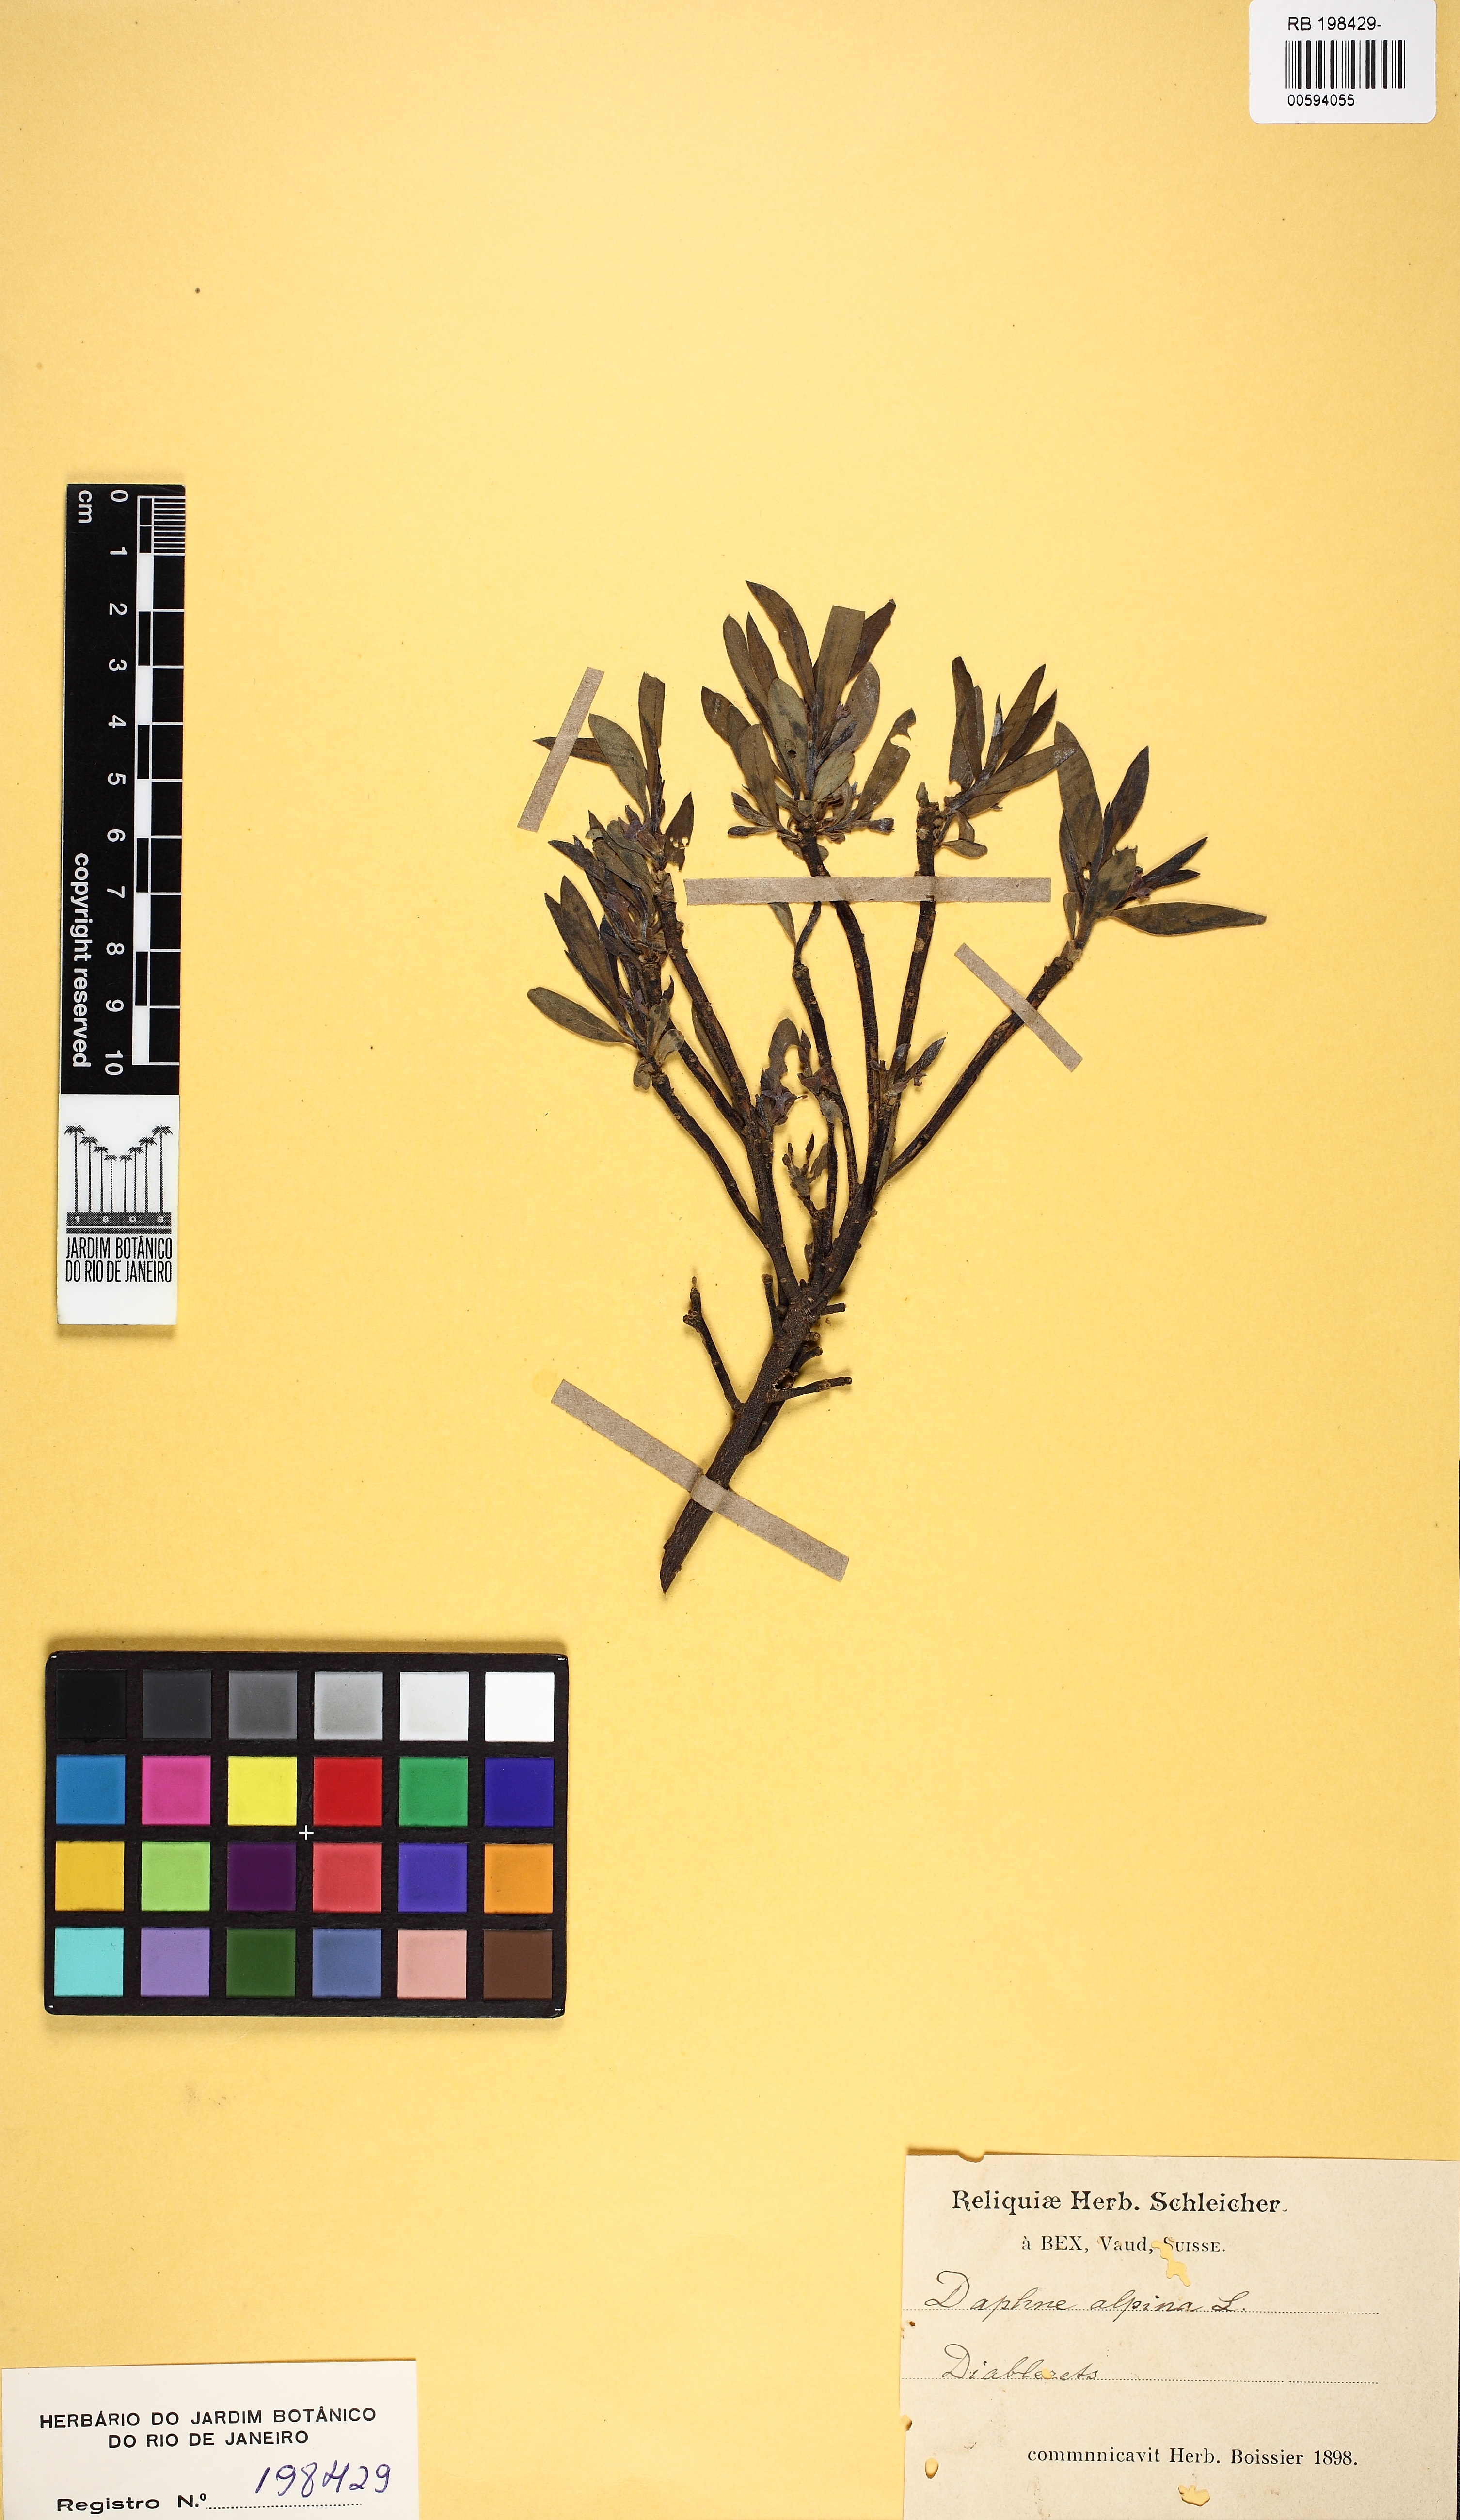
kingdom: Plantae
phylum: Tracheophyta
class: Magnoliopsida
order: Malvales
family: Thymelaeaceae
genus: Daphne
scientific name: Daphne alpina
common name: Alpine daphne
